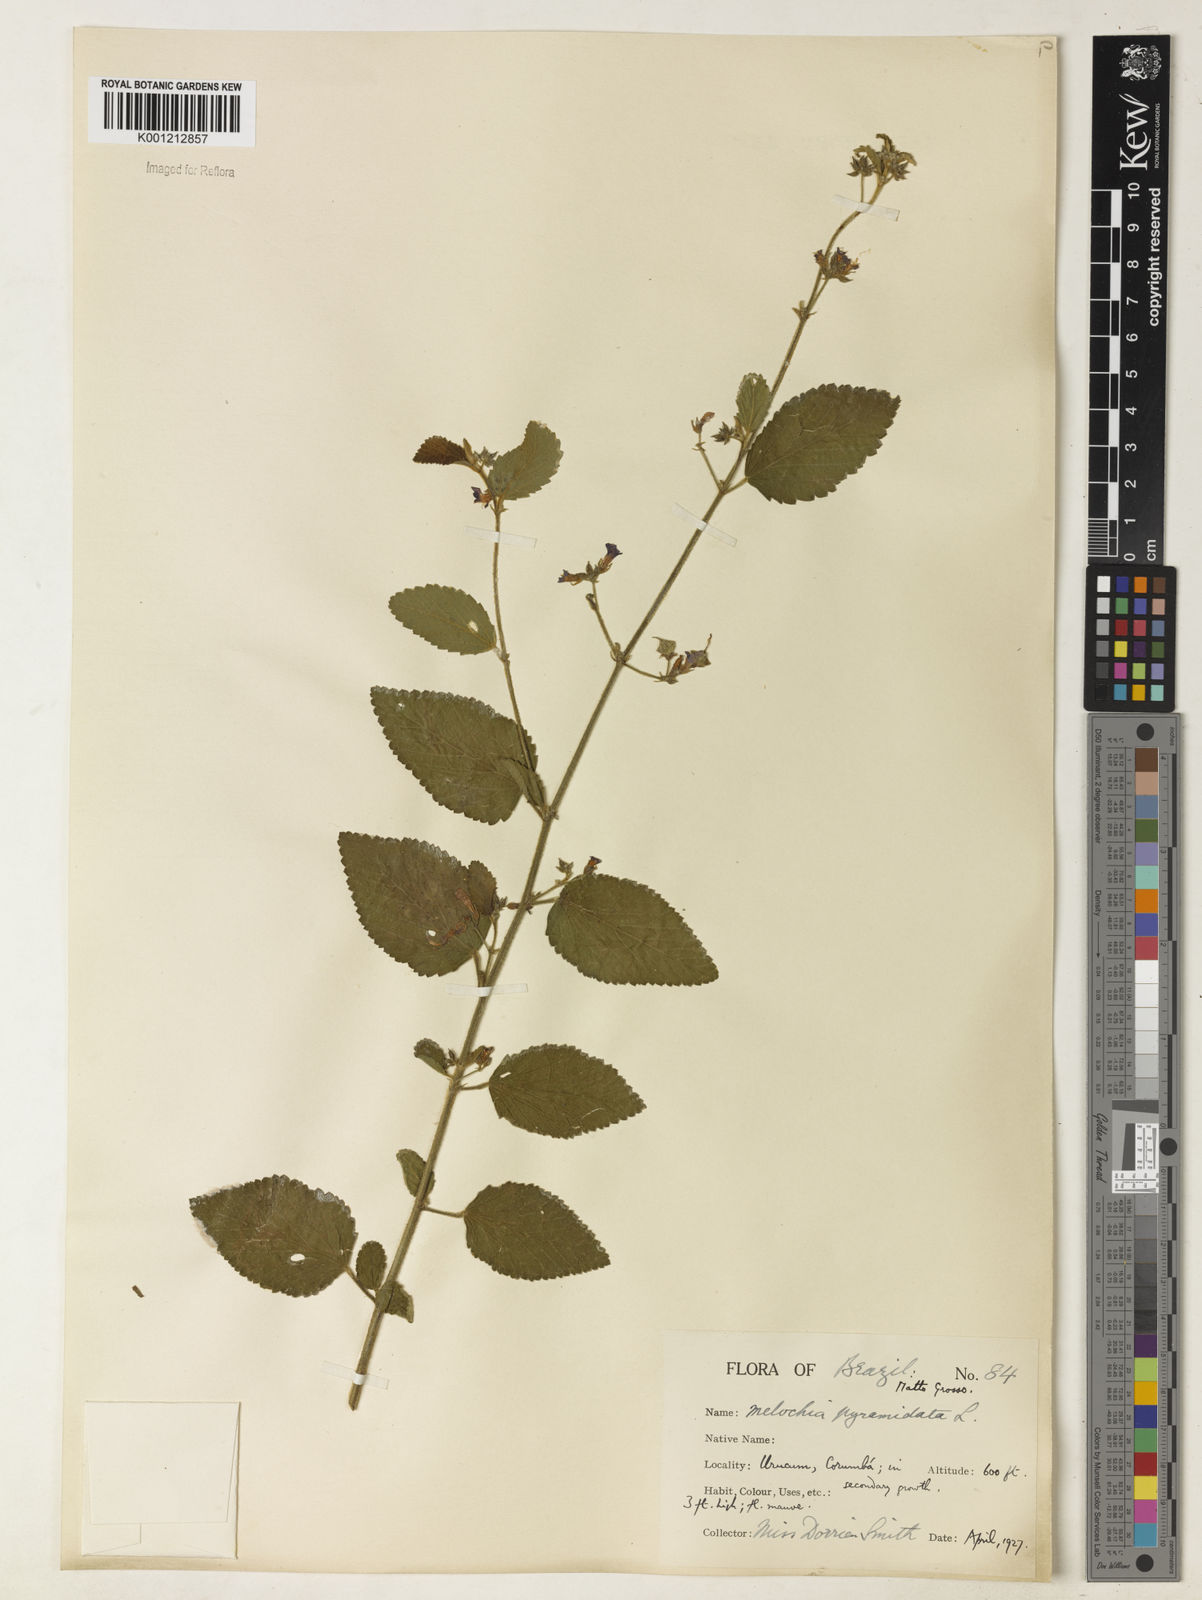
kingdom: Plantae
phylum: Tracheophyta
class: Magnoliopsida
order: Malvales
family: Malvaceae
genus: Melochia
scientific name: Melochia pyramidata
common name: Pyramidflower
